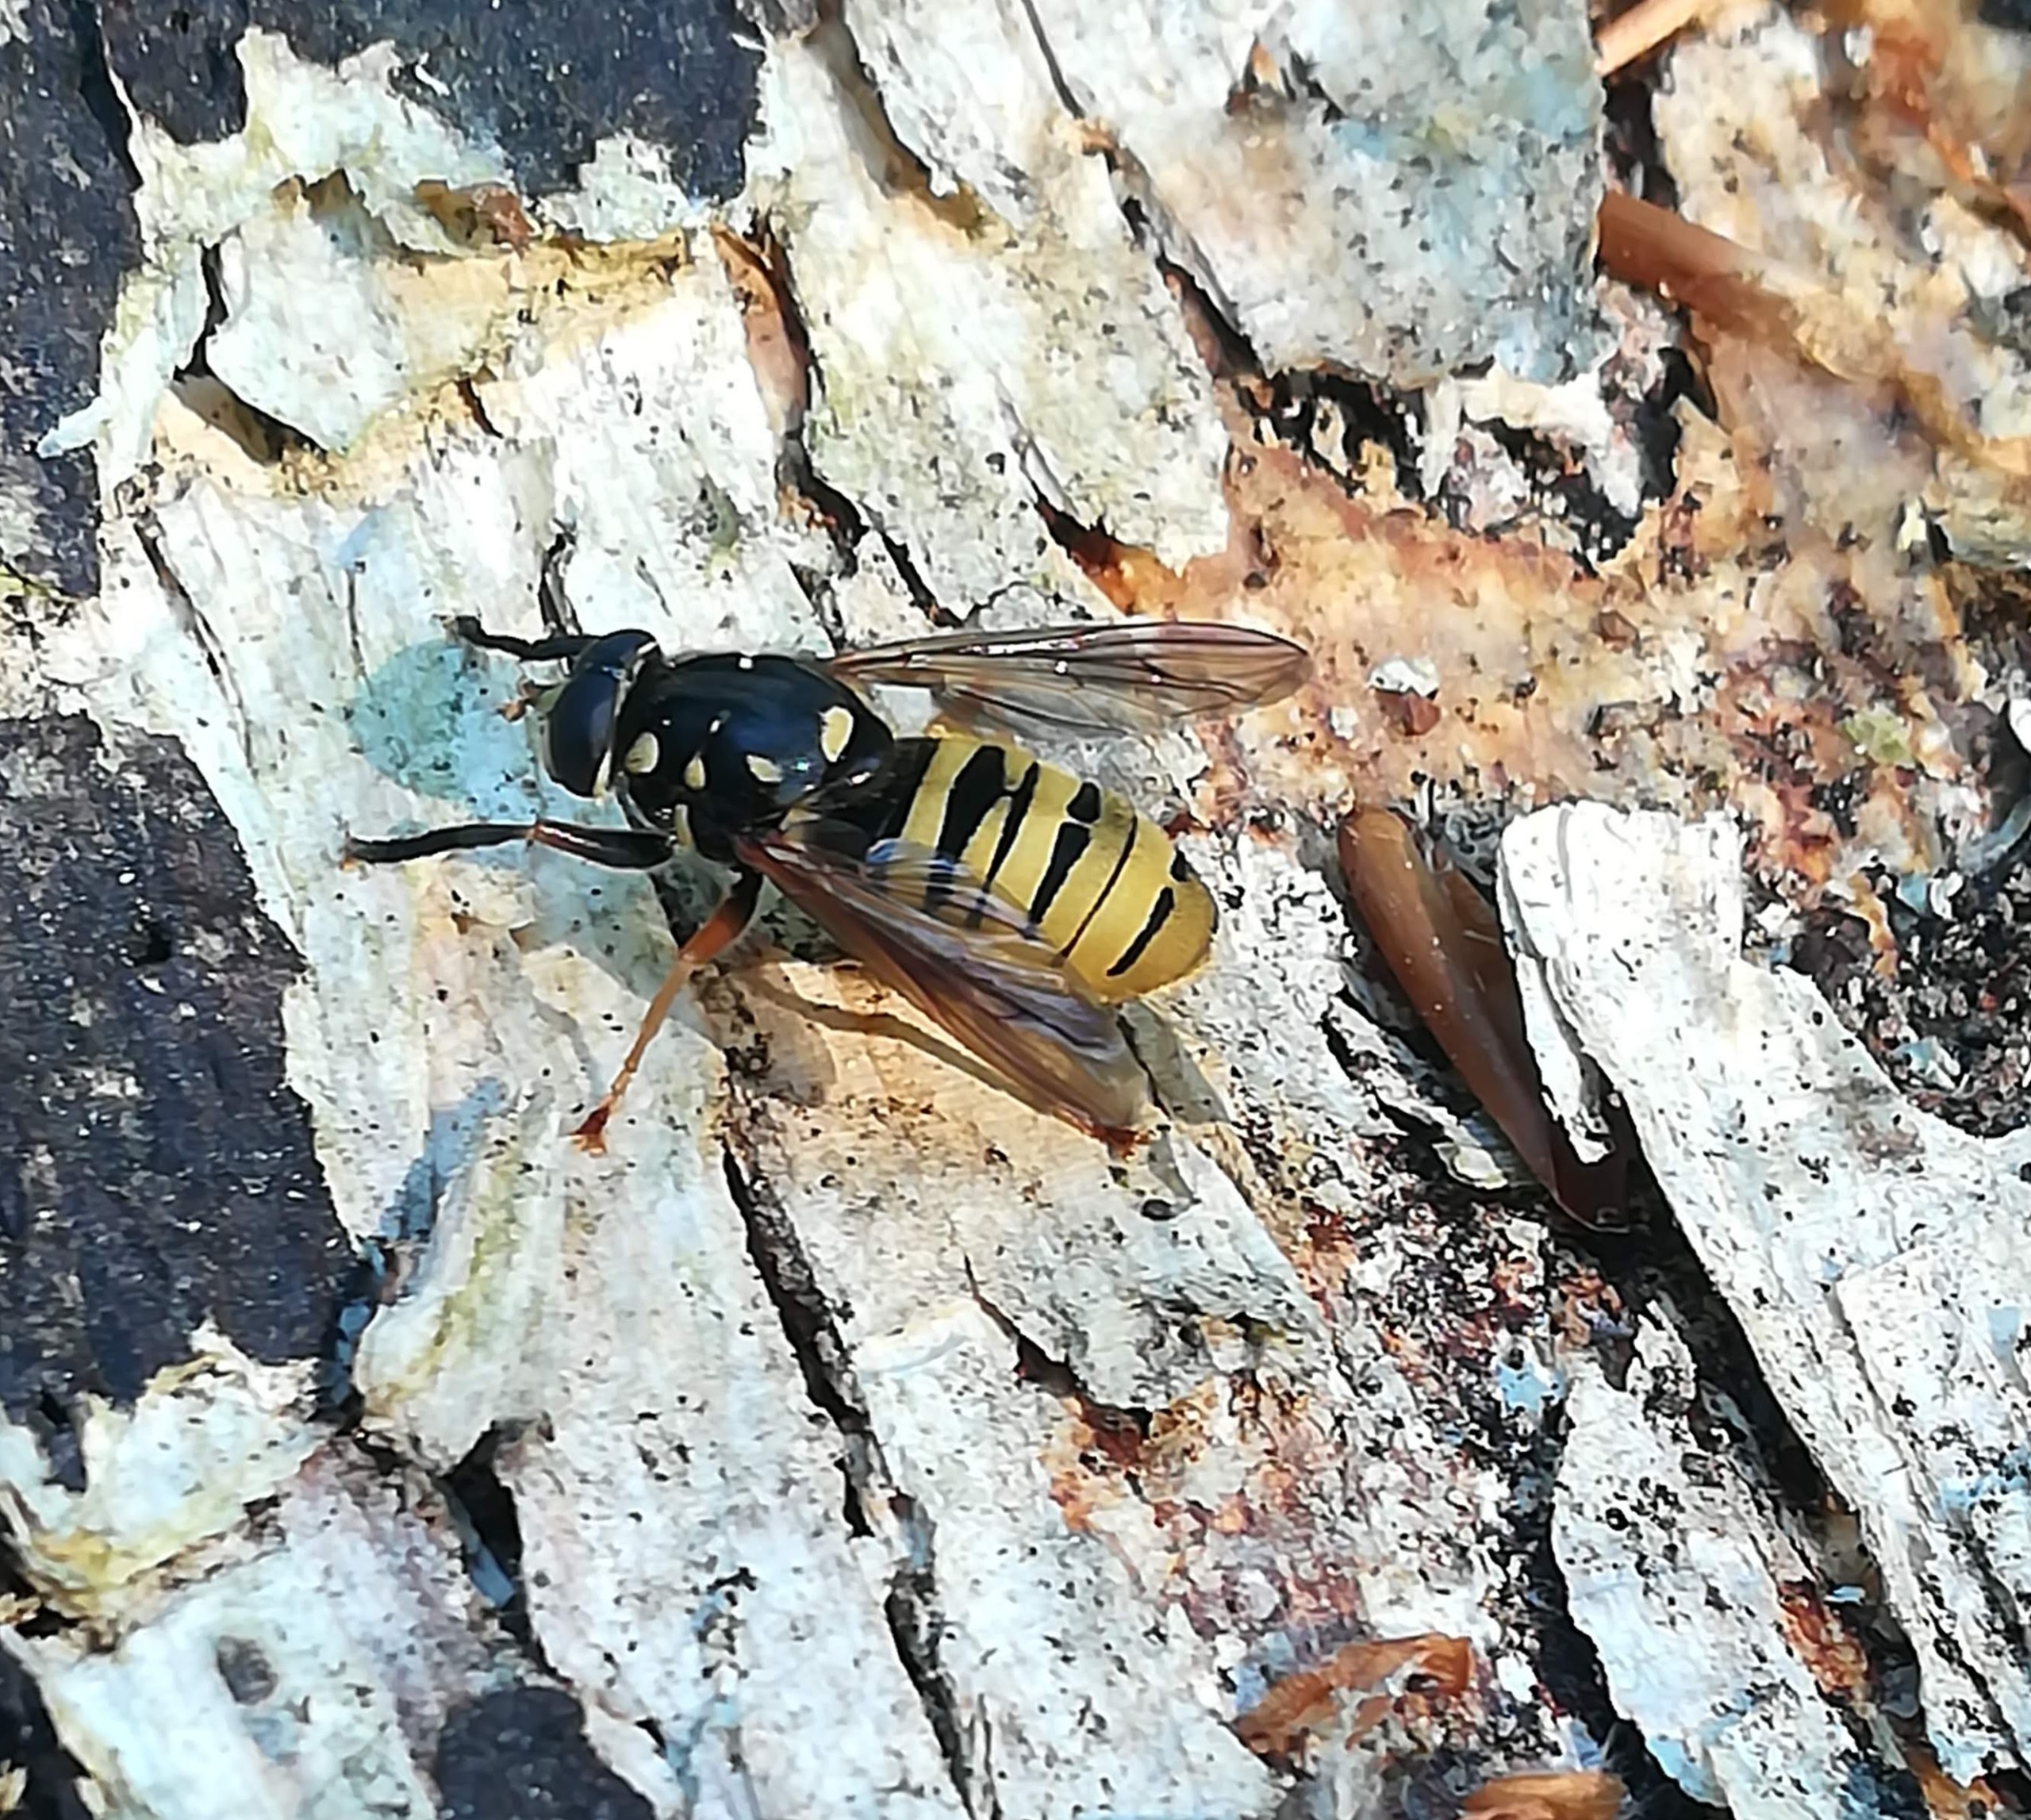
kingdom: Animalia
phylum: Arthropoda
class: Insecta
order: Diptera
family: Syrphidae
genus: Temnostoma
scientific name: Temnostoma meridionale
